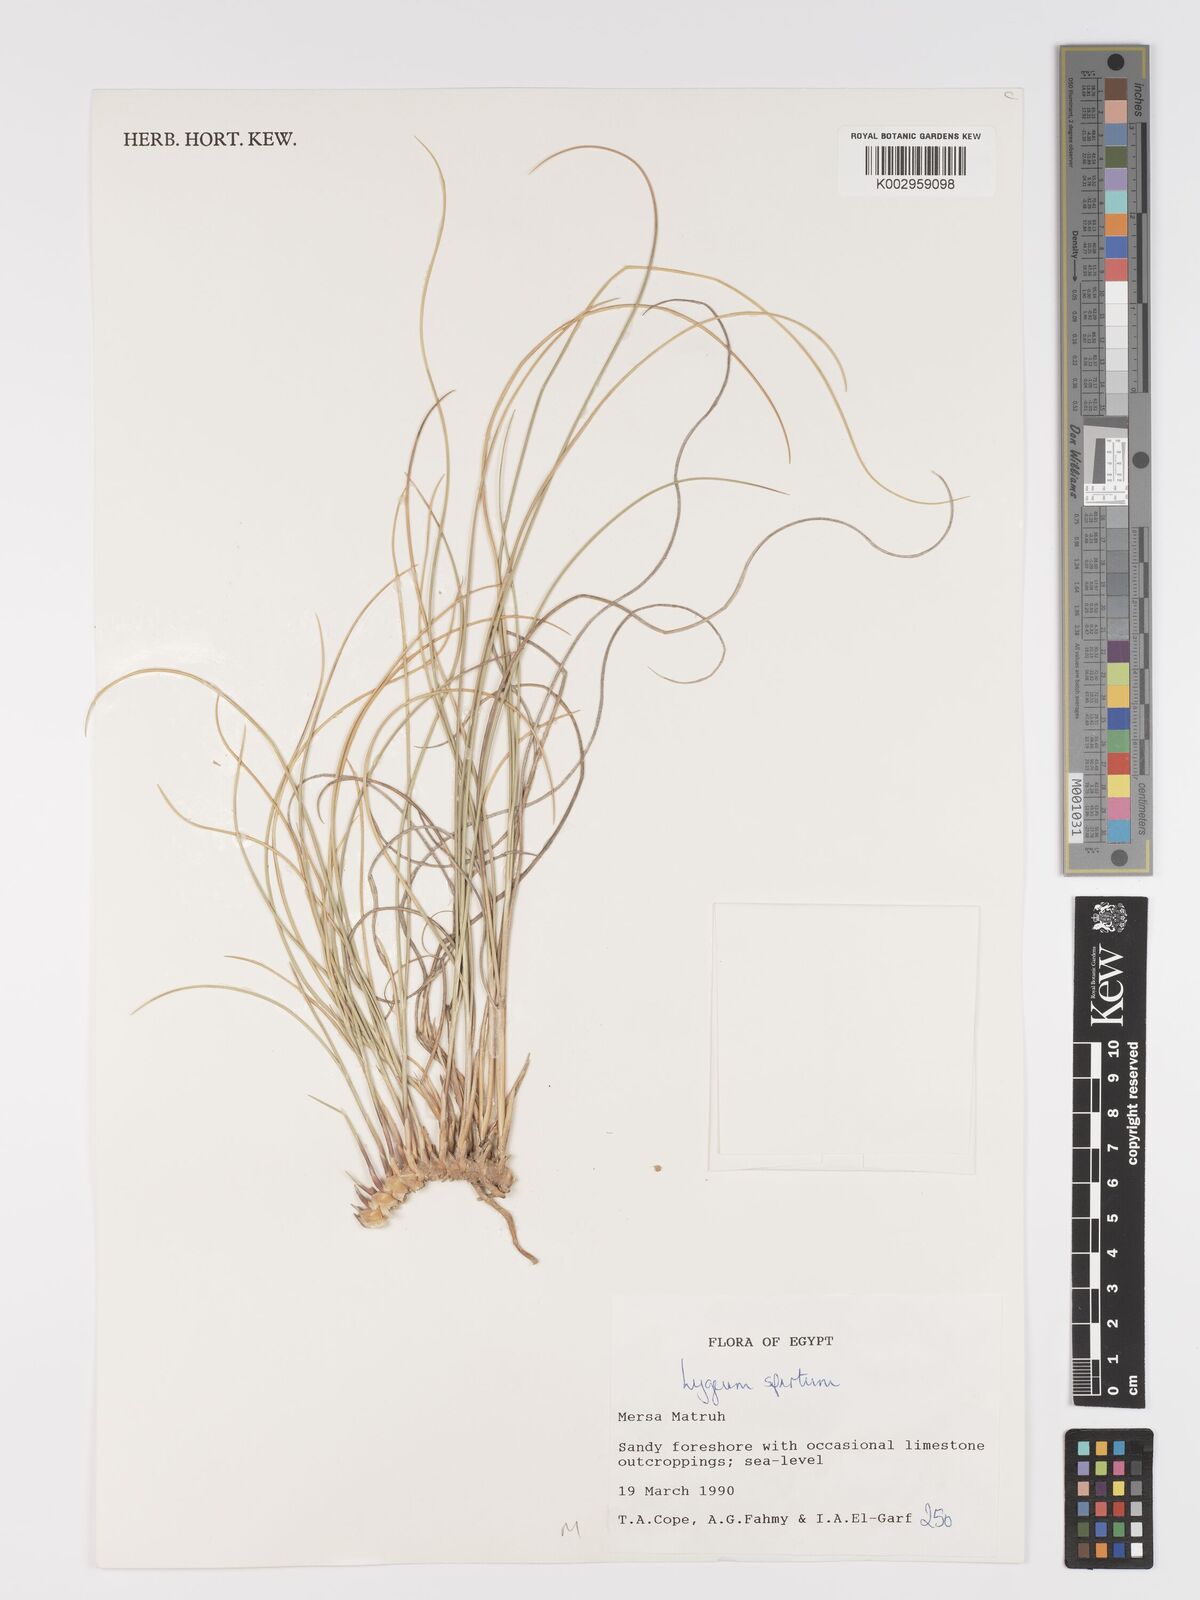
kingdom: Plantae
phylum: Tracheophyta
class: Liliopsida
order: Poales
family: Poaceae
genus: Lygeum
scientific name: Lygeum spartum
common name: Albardine
